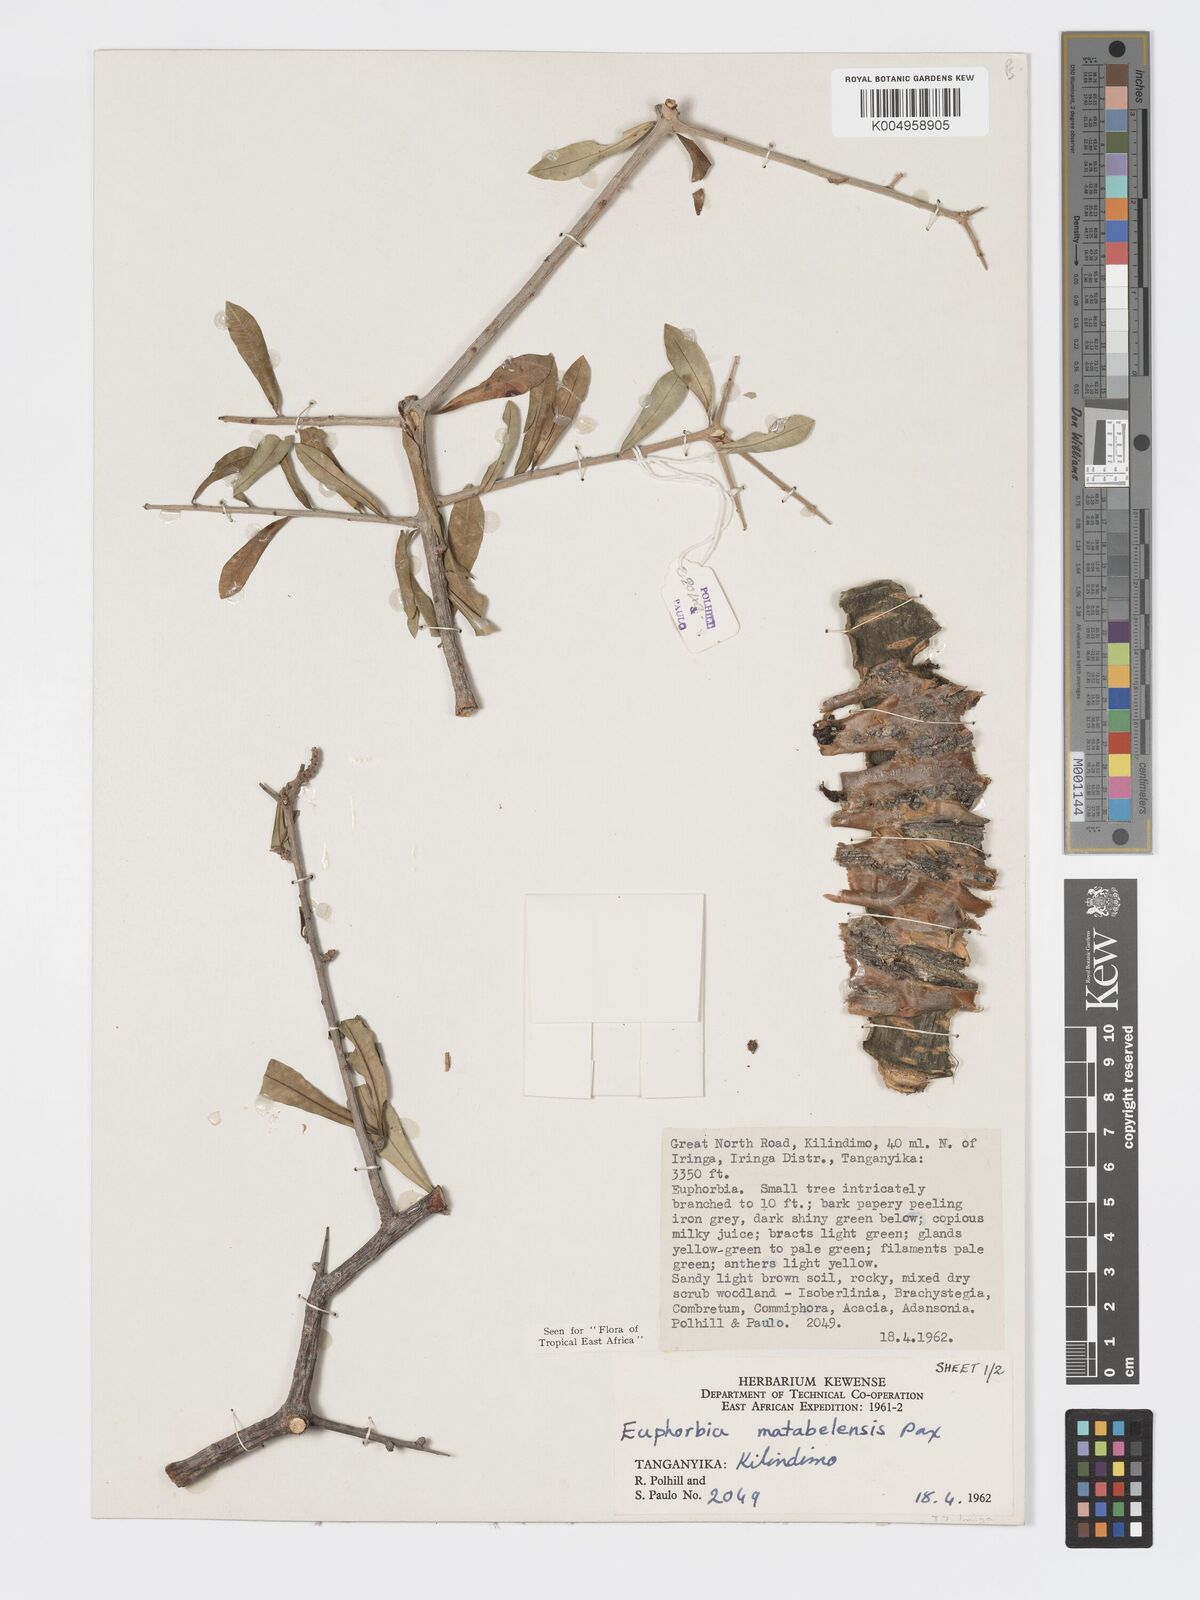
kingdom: Plantae
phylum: Tracheophyta
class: Magnoliopsida
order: Malpighiales
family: Euphorbiaceae
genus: Euphorbia
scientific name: Euphorbia matabelensis
